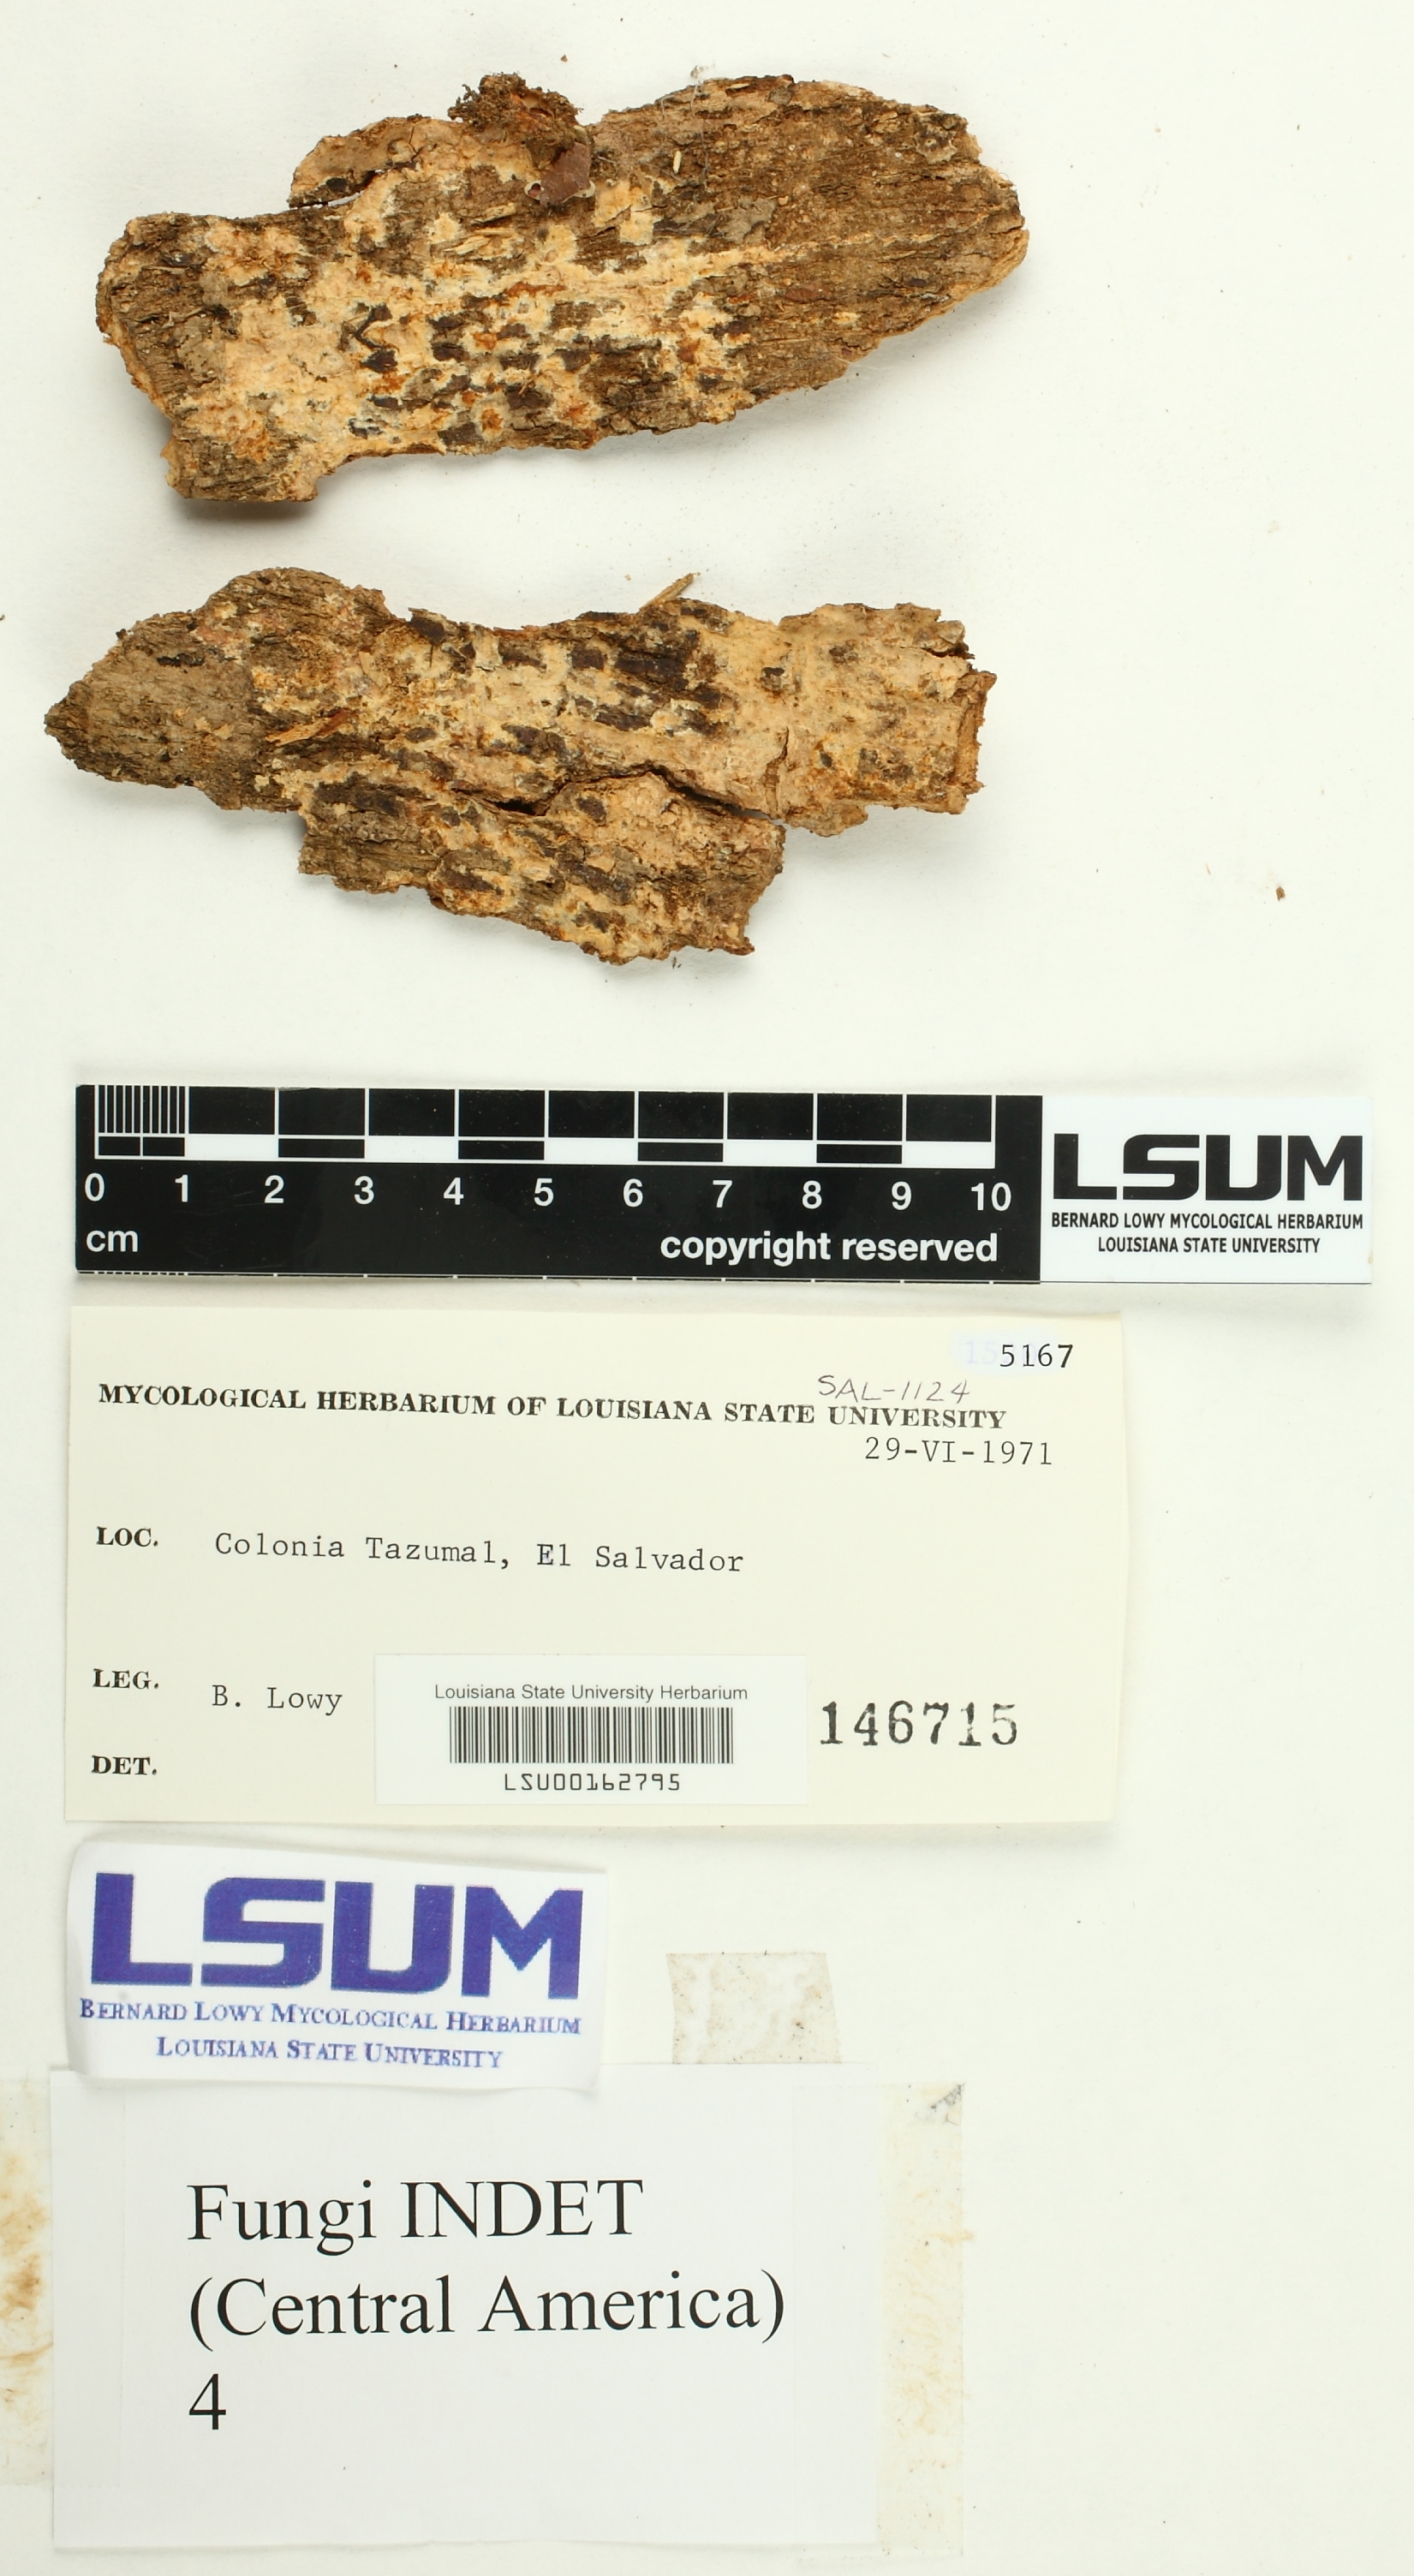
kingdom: Fungi
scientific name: Fungi
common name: Fungi
